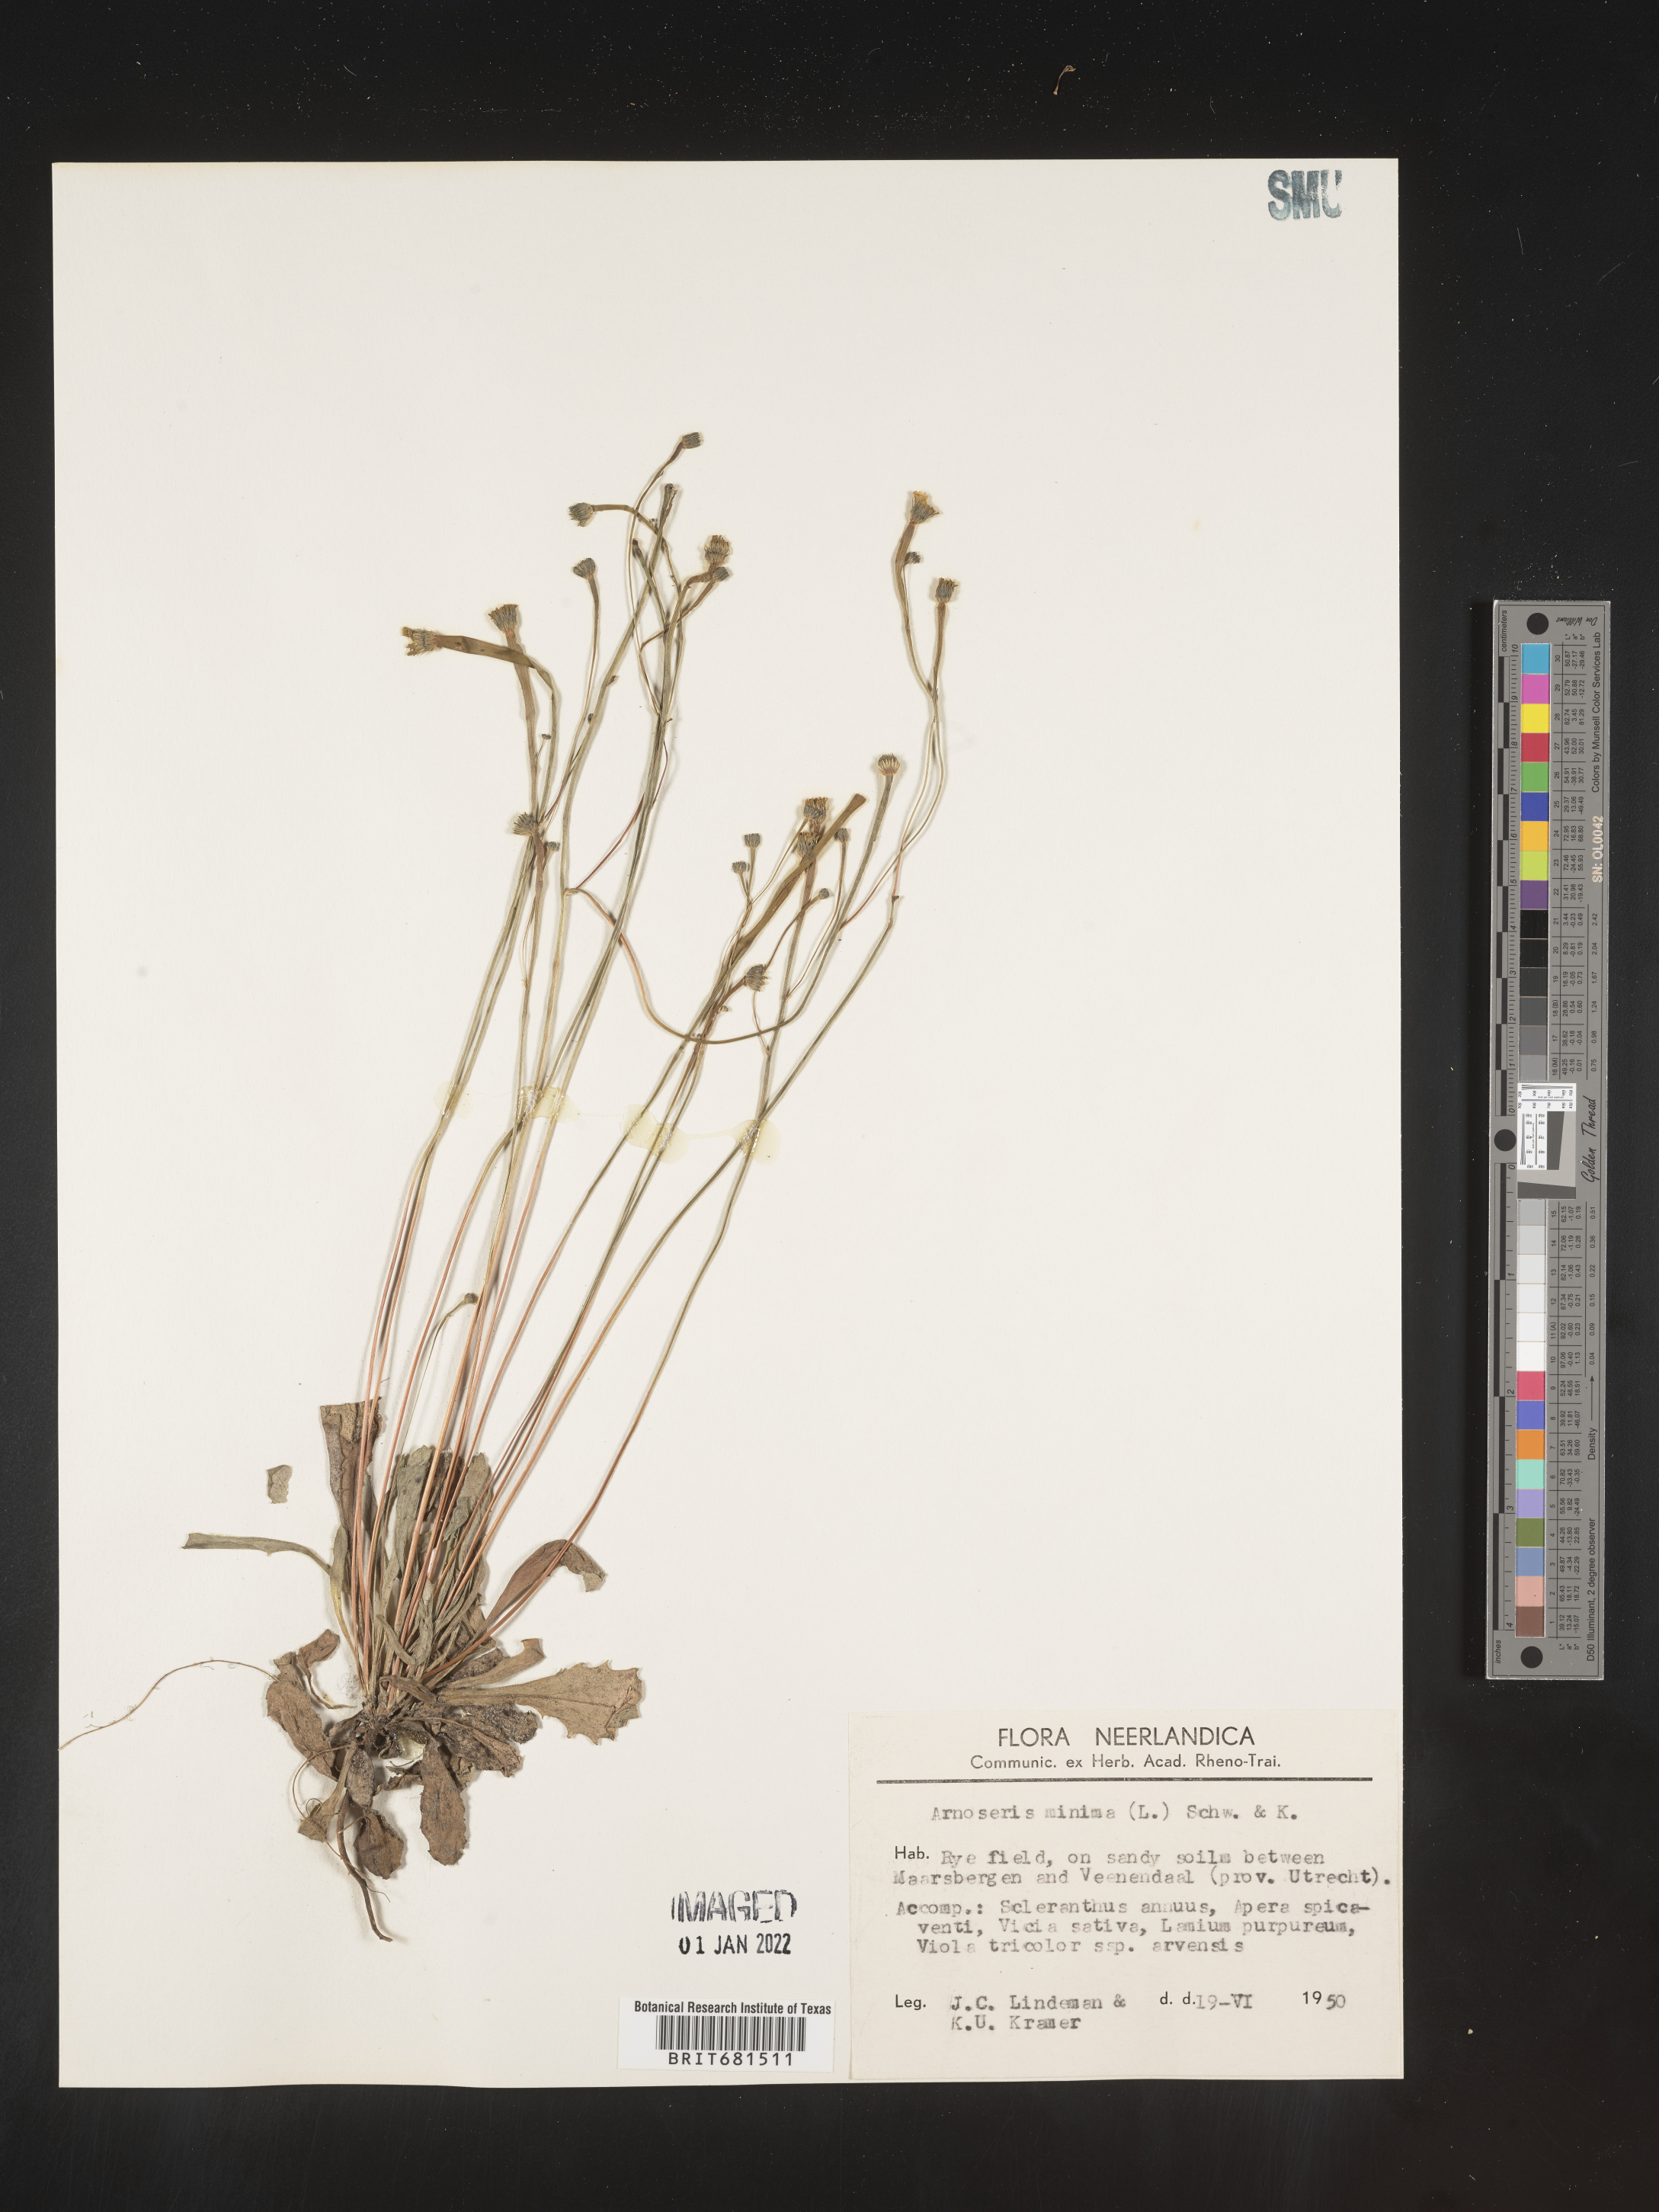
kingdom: Plantae
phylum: Tracheophyta
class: Magnoliopsida
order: Asterales
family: Asteraceae
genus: Arnoseris
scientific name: Arnoseris
